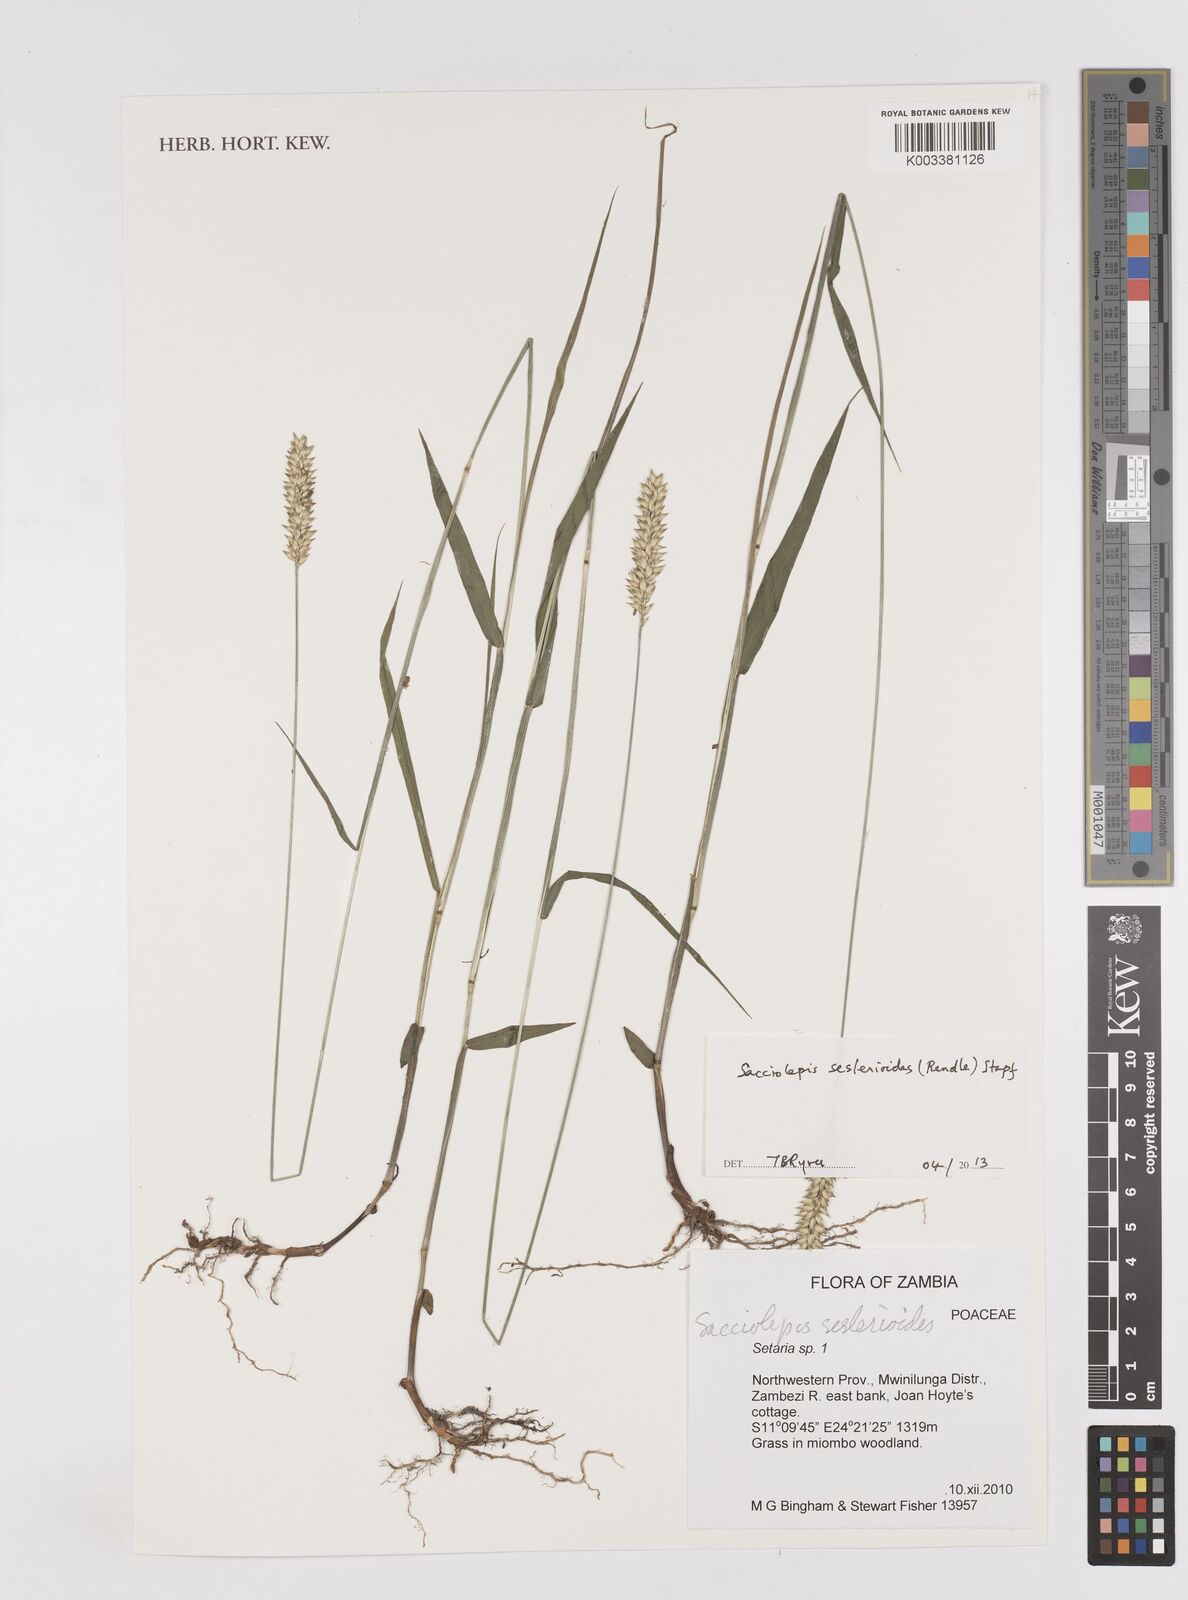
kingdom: Plantae
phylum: Tracheophyta
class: Liliopsida
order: Poales
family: Poaceae
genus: Sacciolepis
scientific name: Sacciolepis seslerioides
